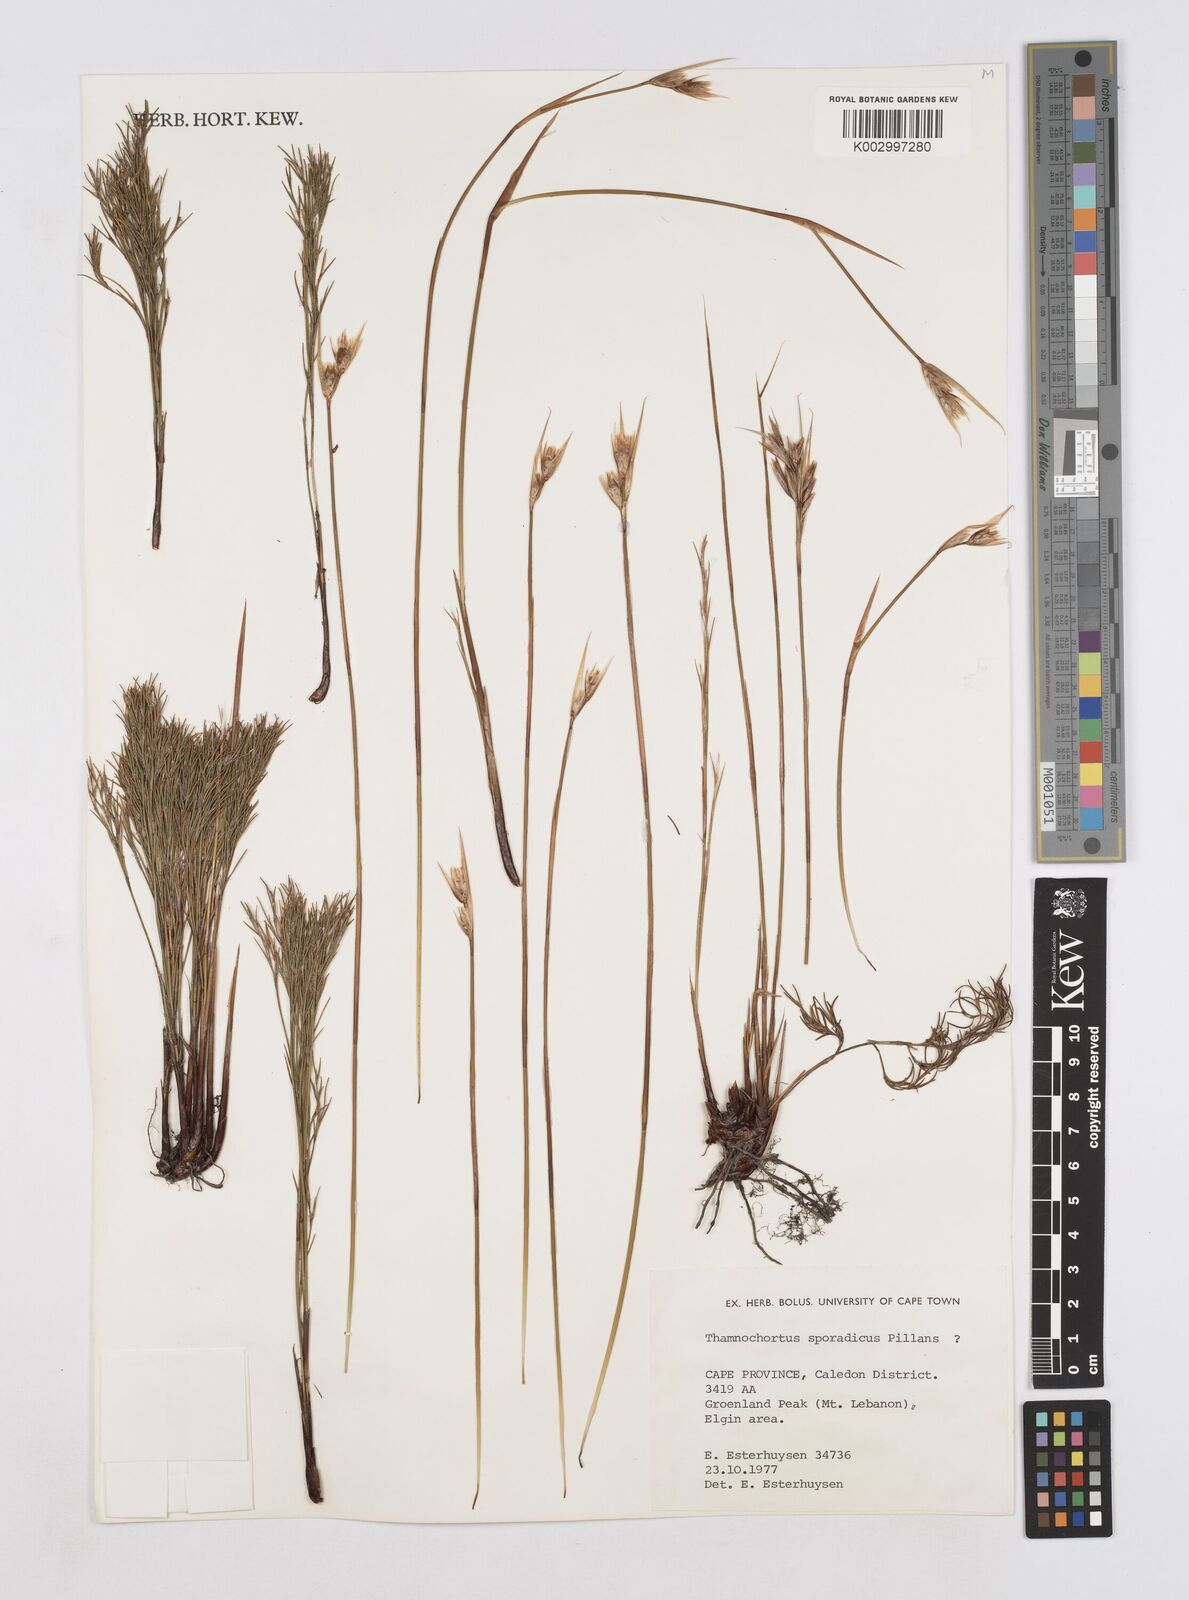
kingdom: Plantae
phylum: Tracheophyta
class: Liliopsida
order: Poales
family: Restionaceae
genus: Thamnochortus
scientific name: Thamnochortus sporadicus
